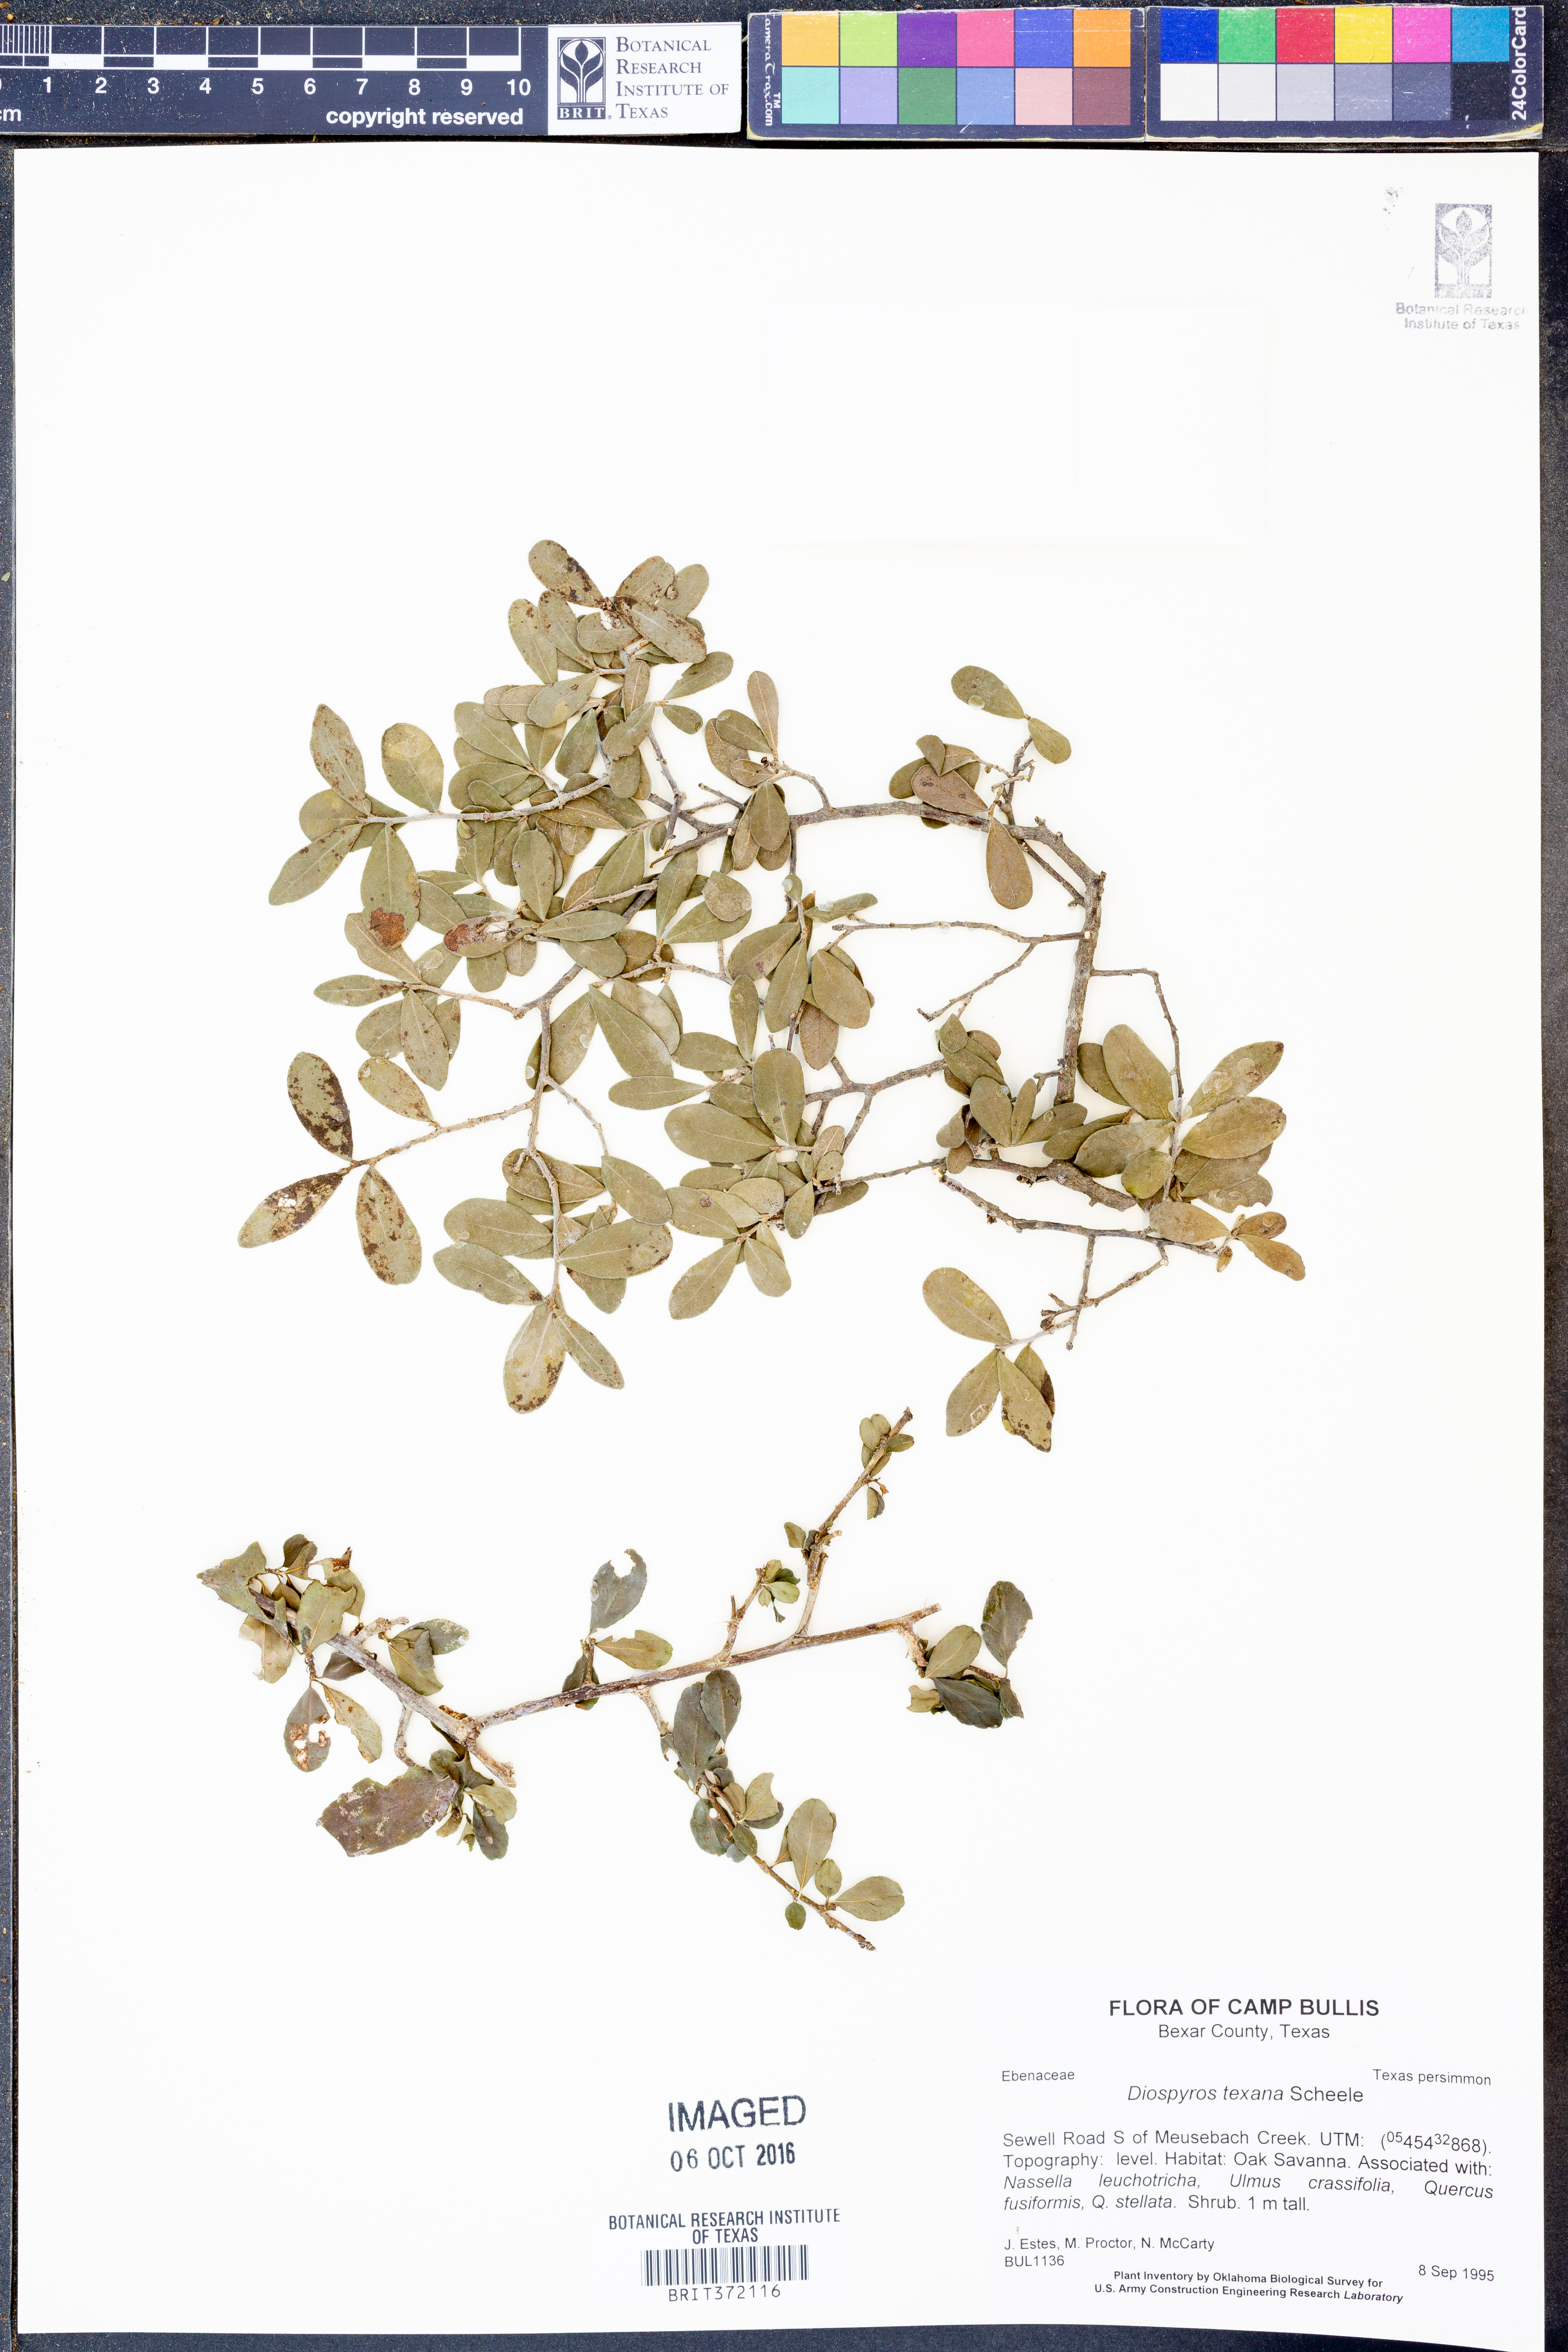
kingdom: Plantae
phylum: Tracheophyta
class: Magnoliopsida
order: Ericales
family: Ebenaceae
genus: Diospyros
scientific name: Diospyros texana
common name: Texas persimmon
